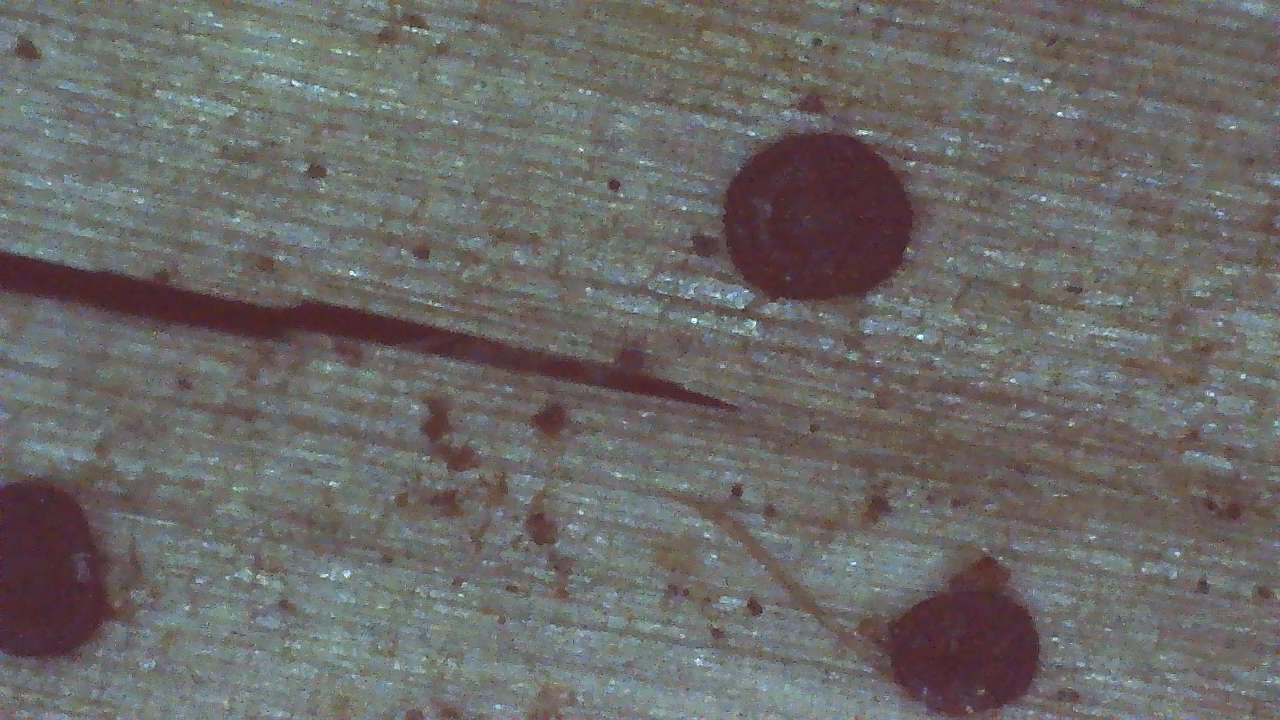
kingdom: Fungi
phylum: Ascomycota
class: Leotiomycetes
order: Helotiales
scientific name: Helotiales
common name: stilkskiveordenen
